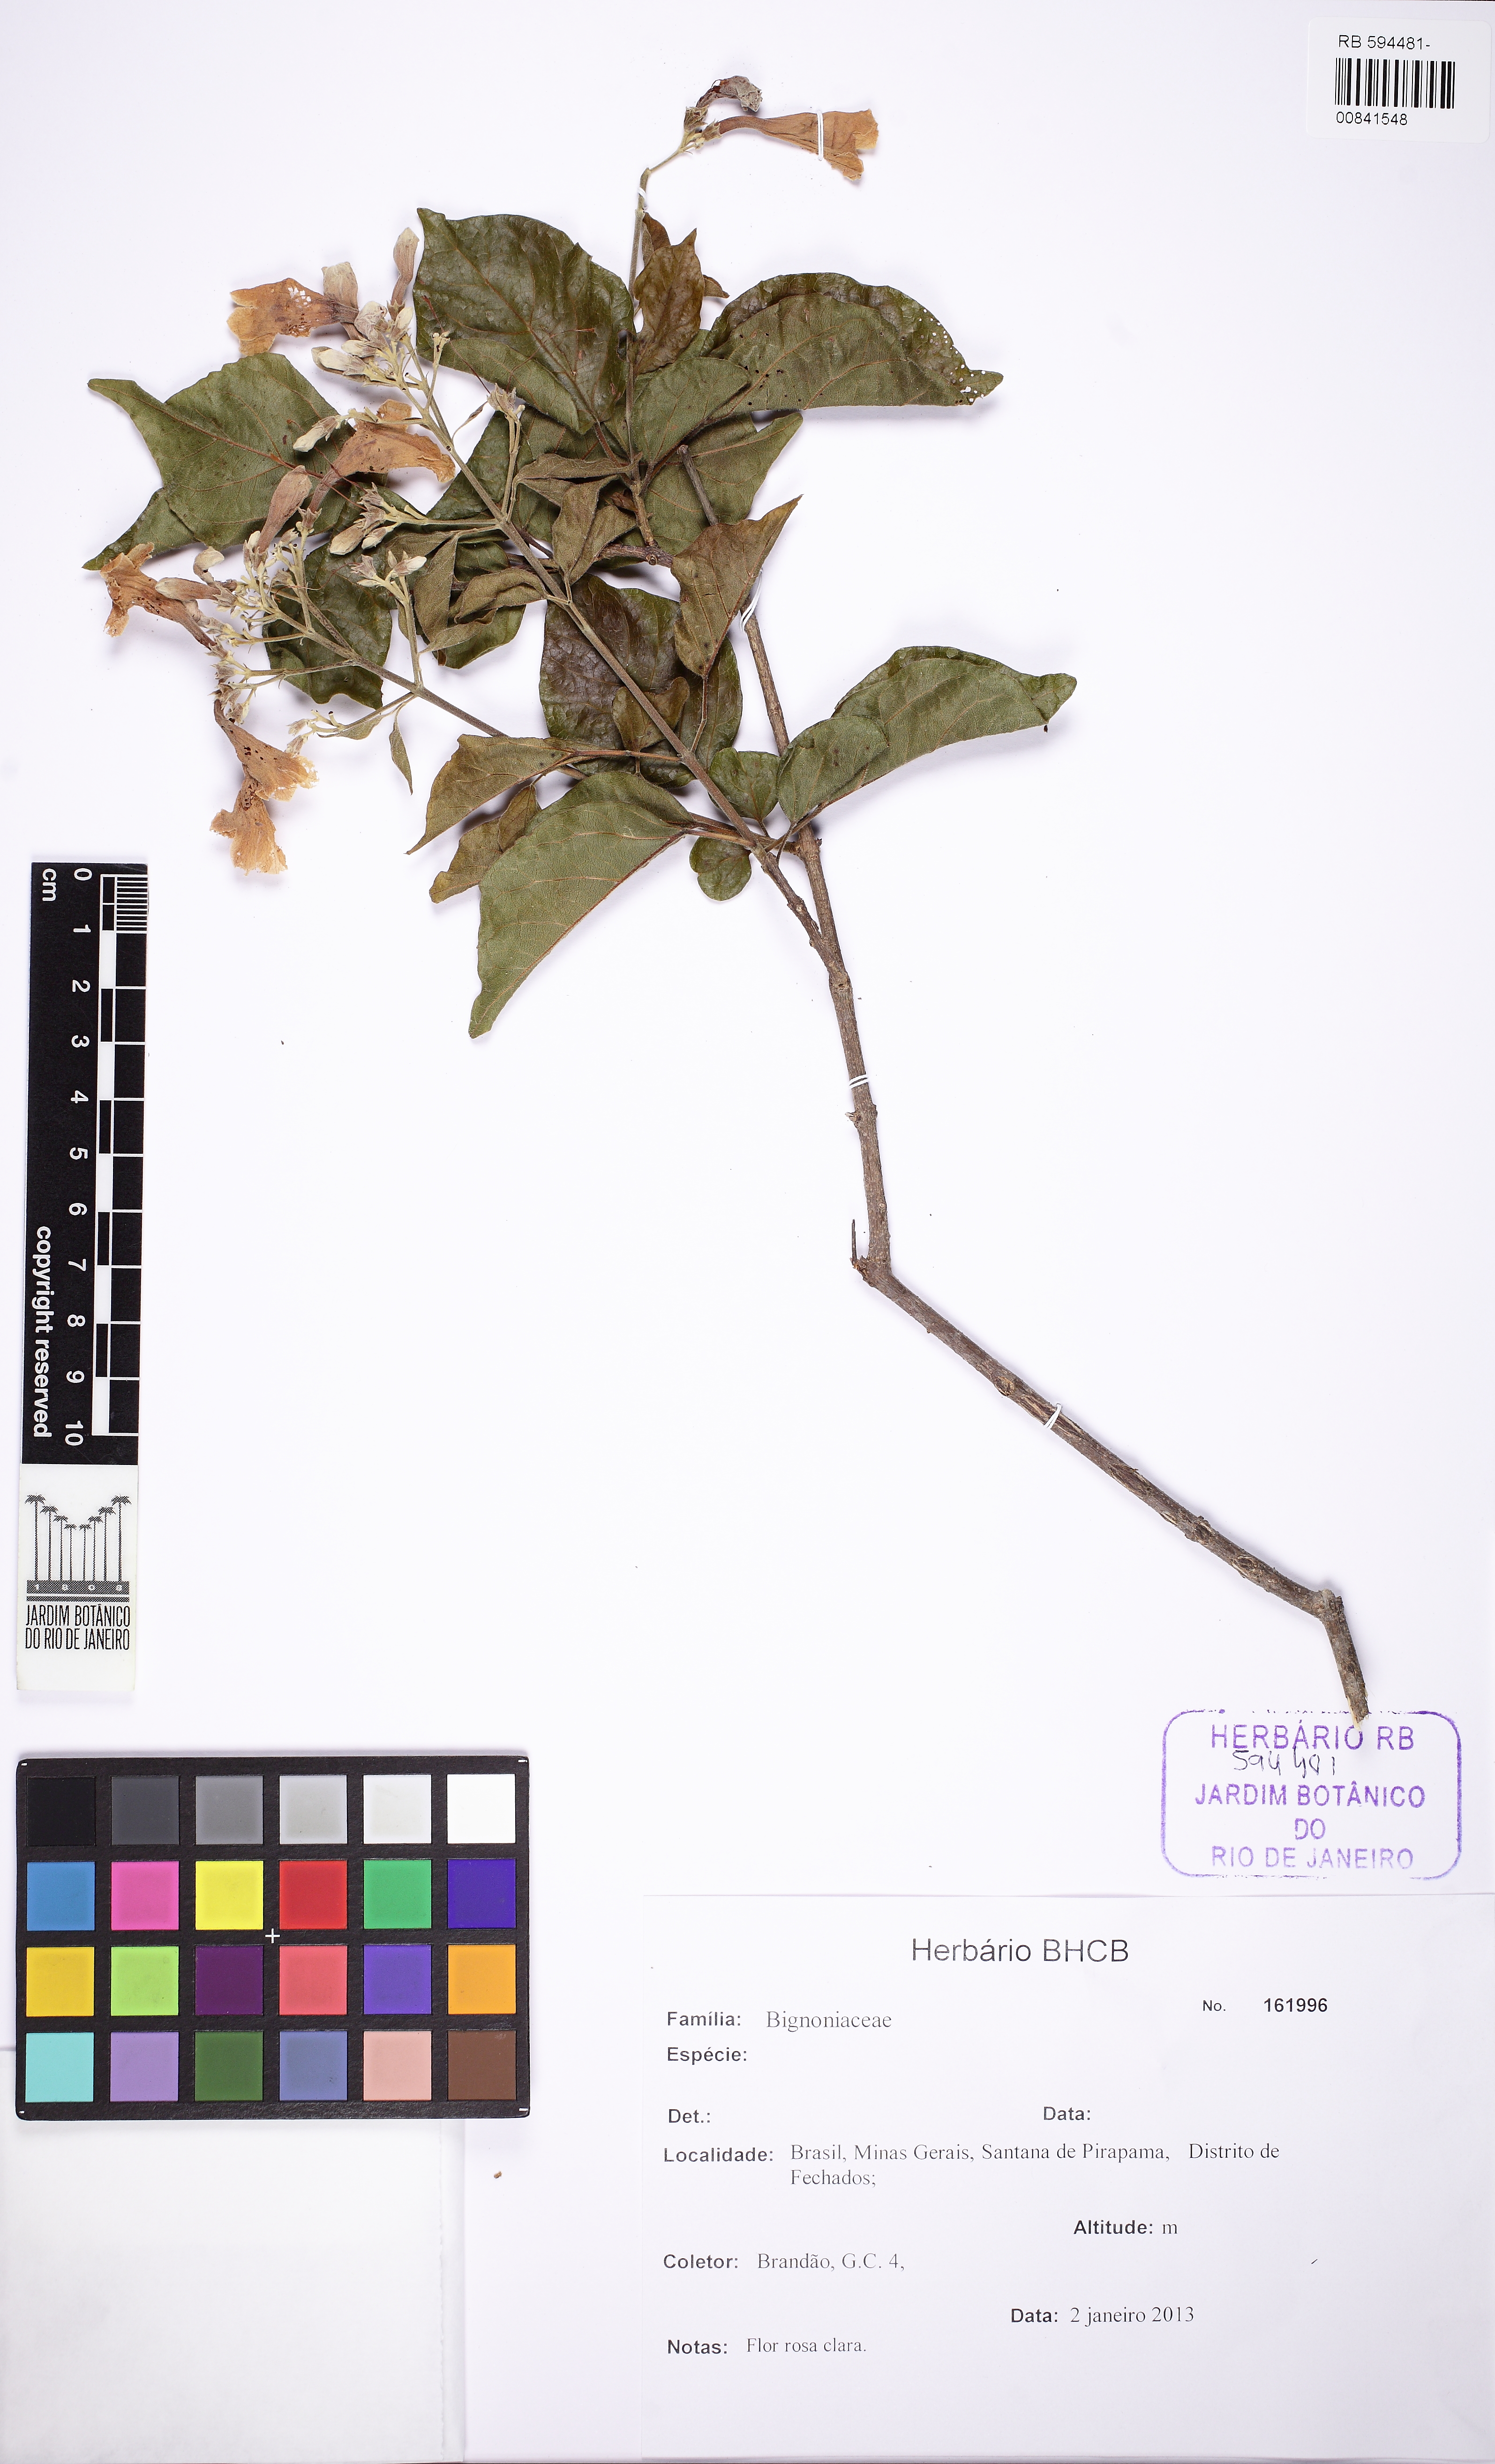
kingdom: Plantae
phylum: Tracheophyta
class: Magnoliopsida
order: Lamiales
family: Bignoniaceae
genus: Cuspidaria
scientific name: Cuspidaria simplicifolia
